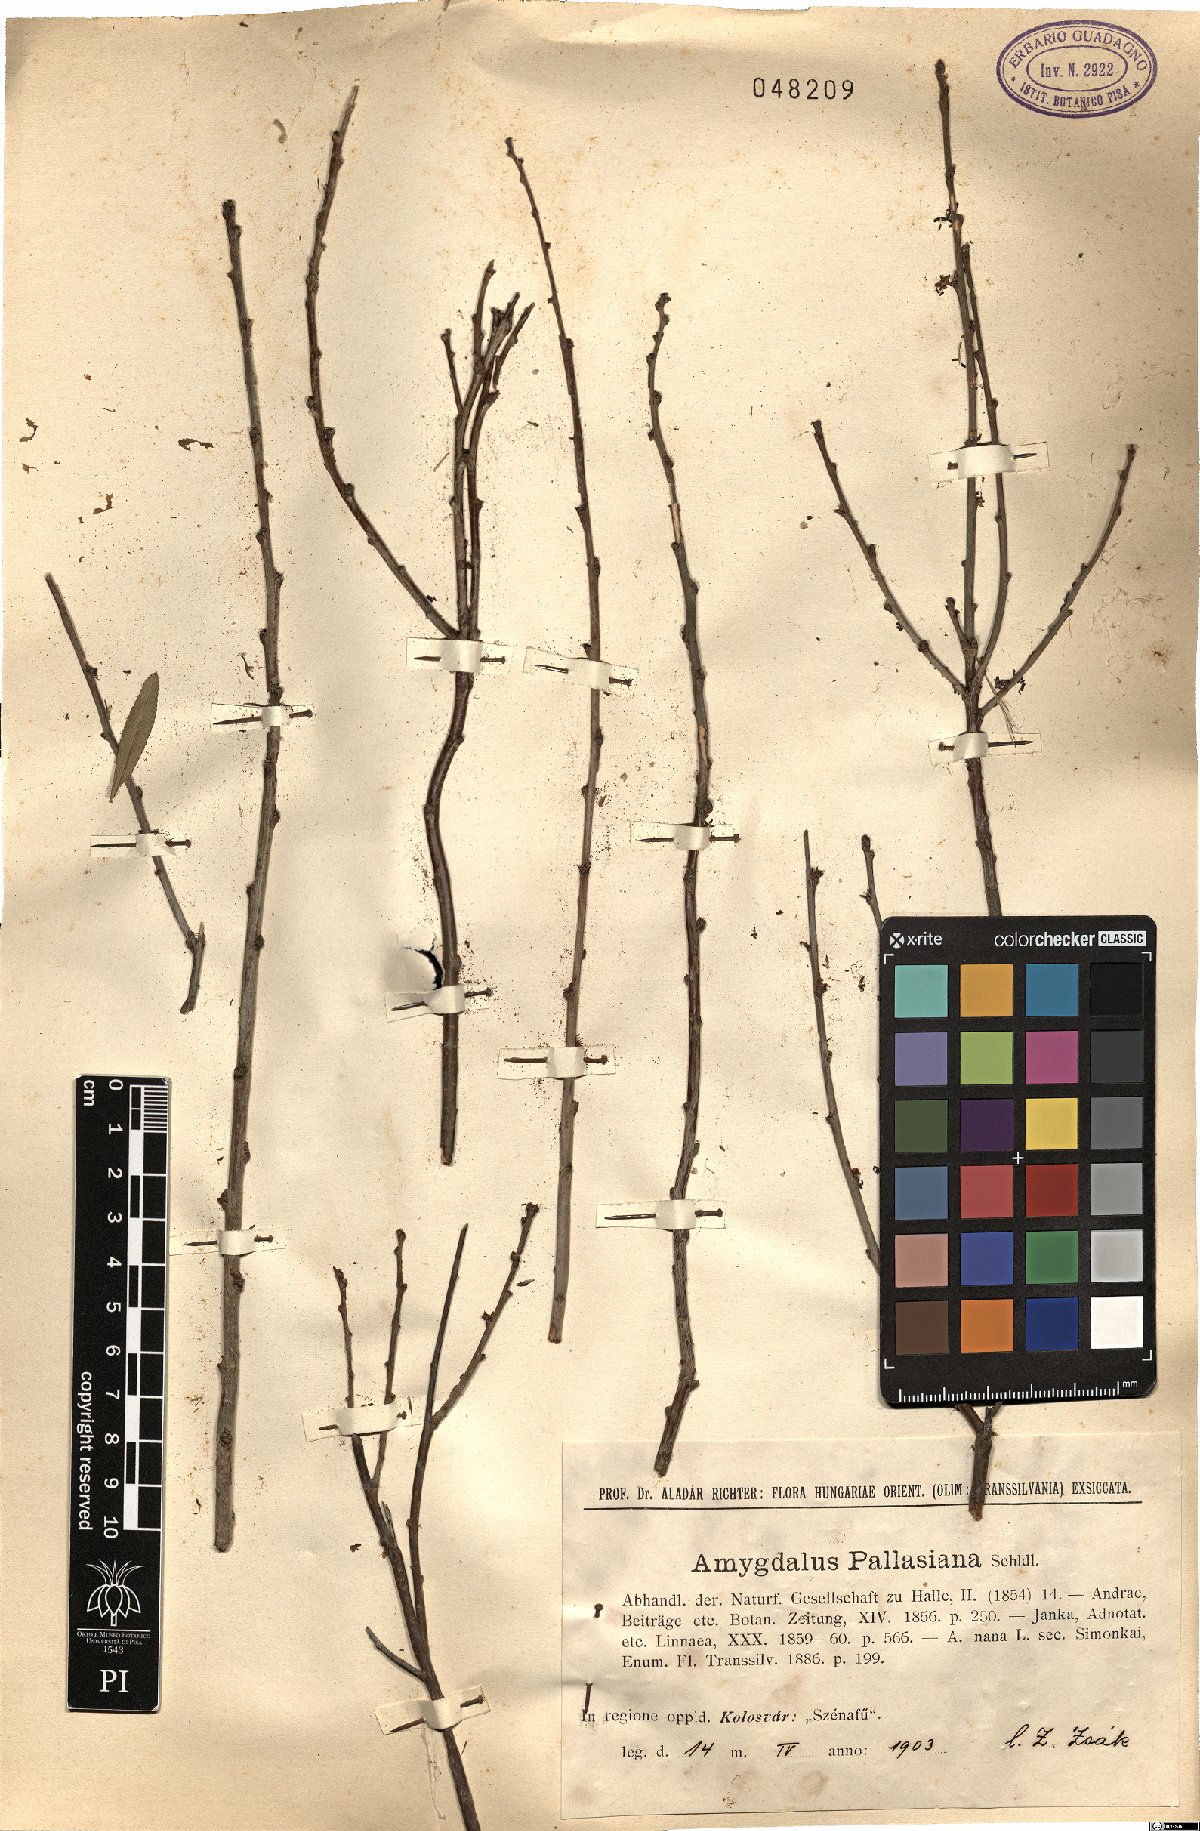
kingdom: Plantae
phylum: Tracheophyta
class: Magnoliopsida
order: Rosales
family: Rosaceae
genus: Prunus
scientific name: Prunus virginiana
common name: Chokecherry
